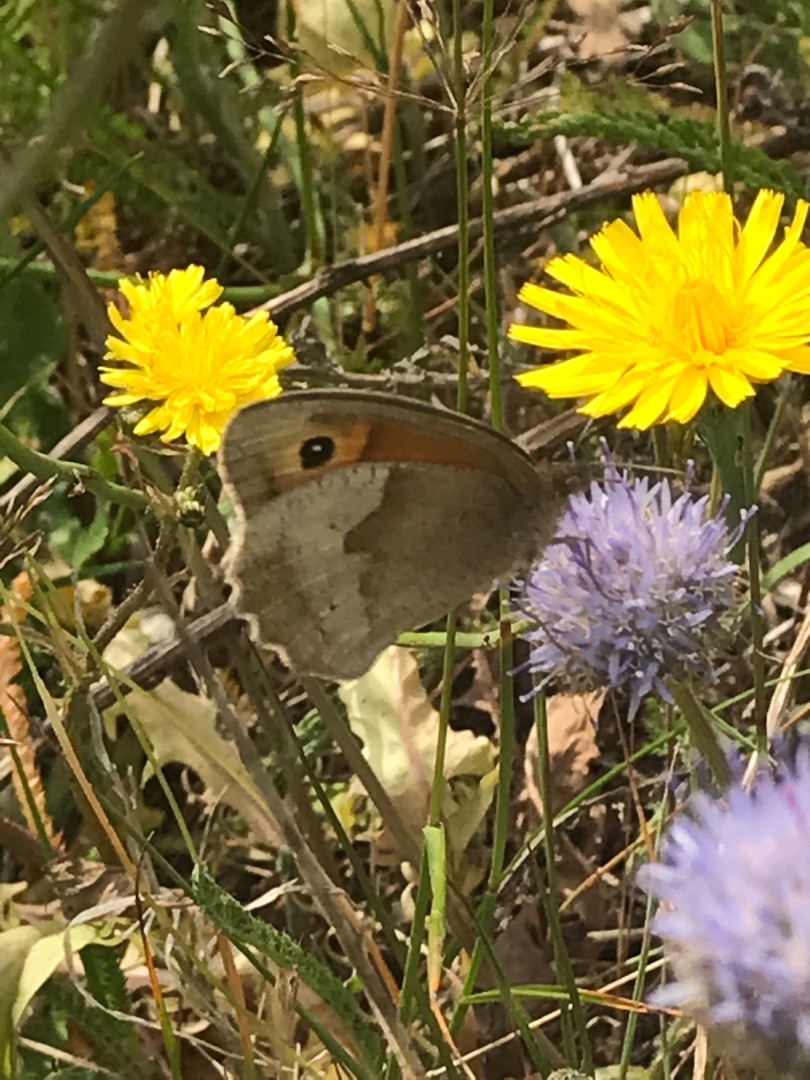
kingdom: Animalia
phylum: Arthropoda
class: Insecta
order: Lepidoptera
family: Nymphalidae
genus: Maniola
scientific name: Maniola jurtina
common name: Græsrandøje
